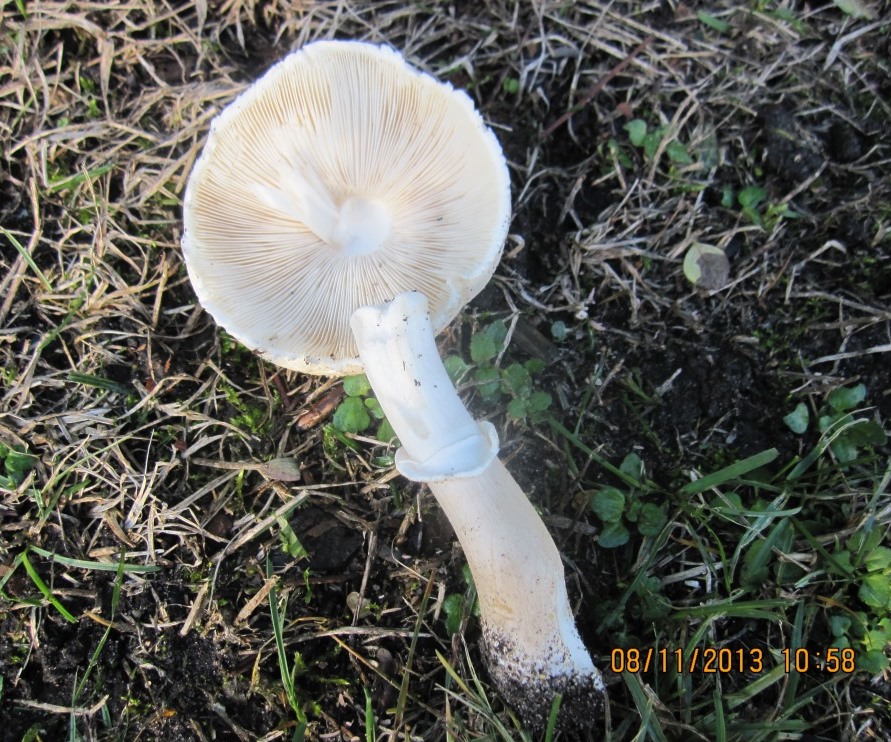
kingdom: Fungi
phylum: Basidiomycota
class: Agaricomycetes
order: Agaricales
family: Agaricaceae
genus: Leucoagaricus
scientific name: Leucoagaricus leucothites
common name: rosabladet silkehat
